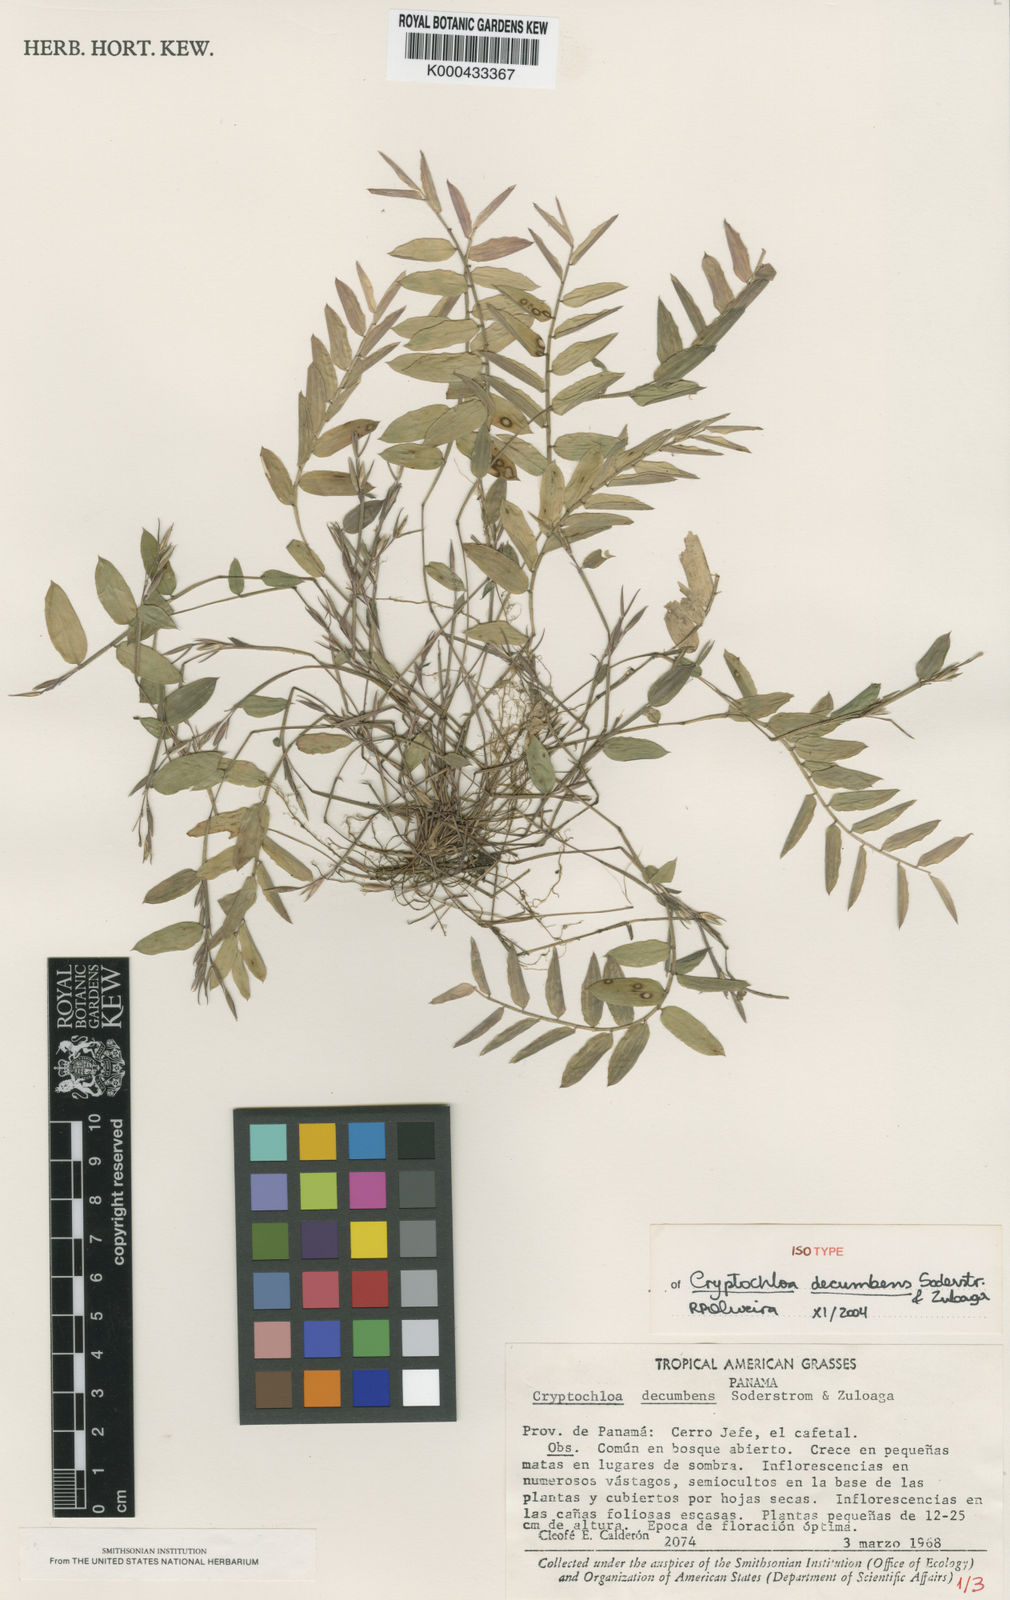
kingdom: Plantae
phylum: Tracheophyta
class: Liliopsida
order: Poales
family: Poaceae
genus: Cryptochloa
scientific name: Cryptochloa decumbens
